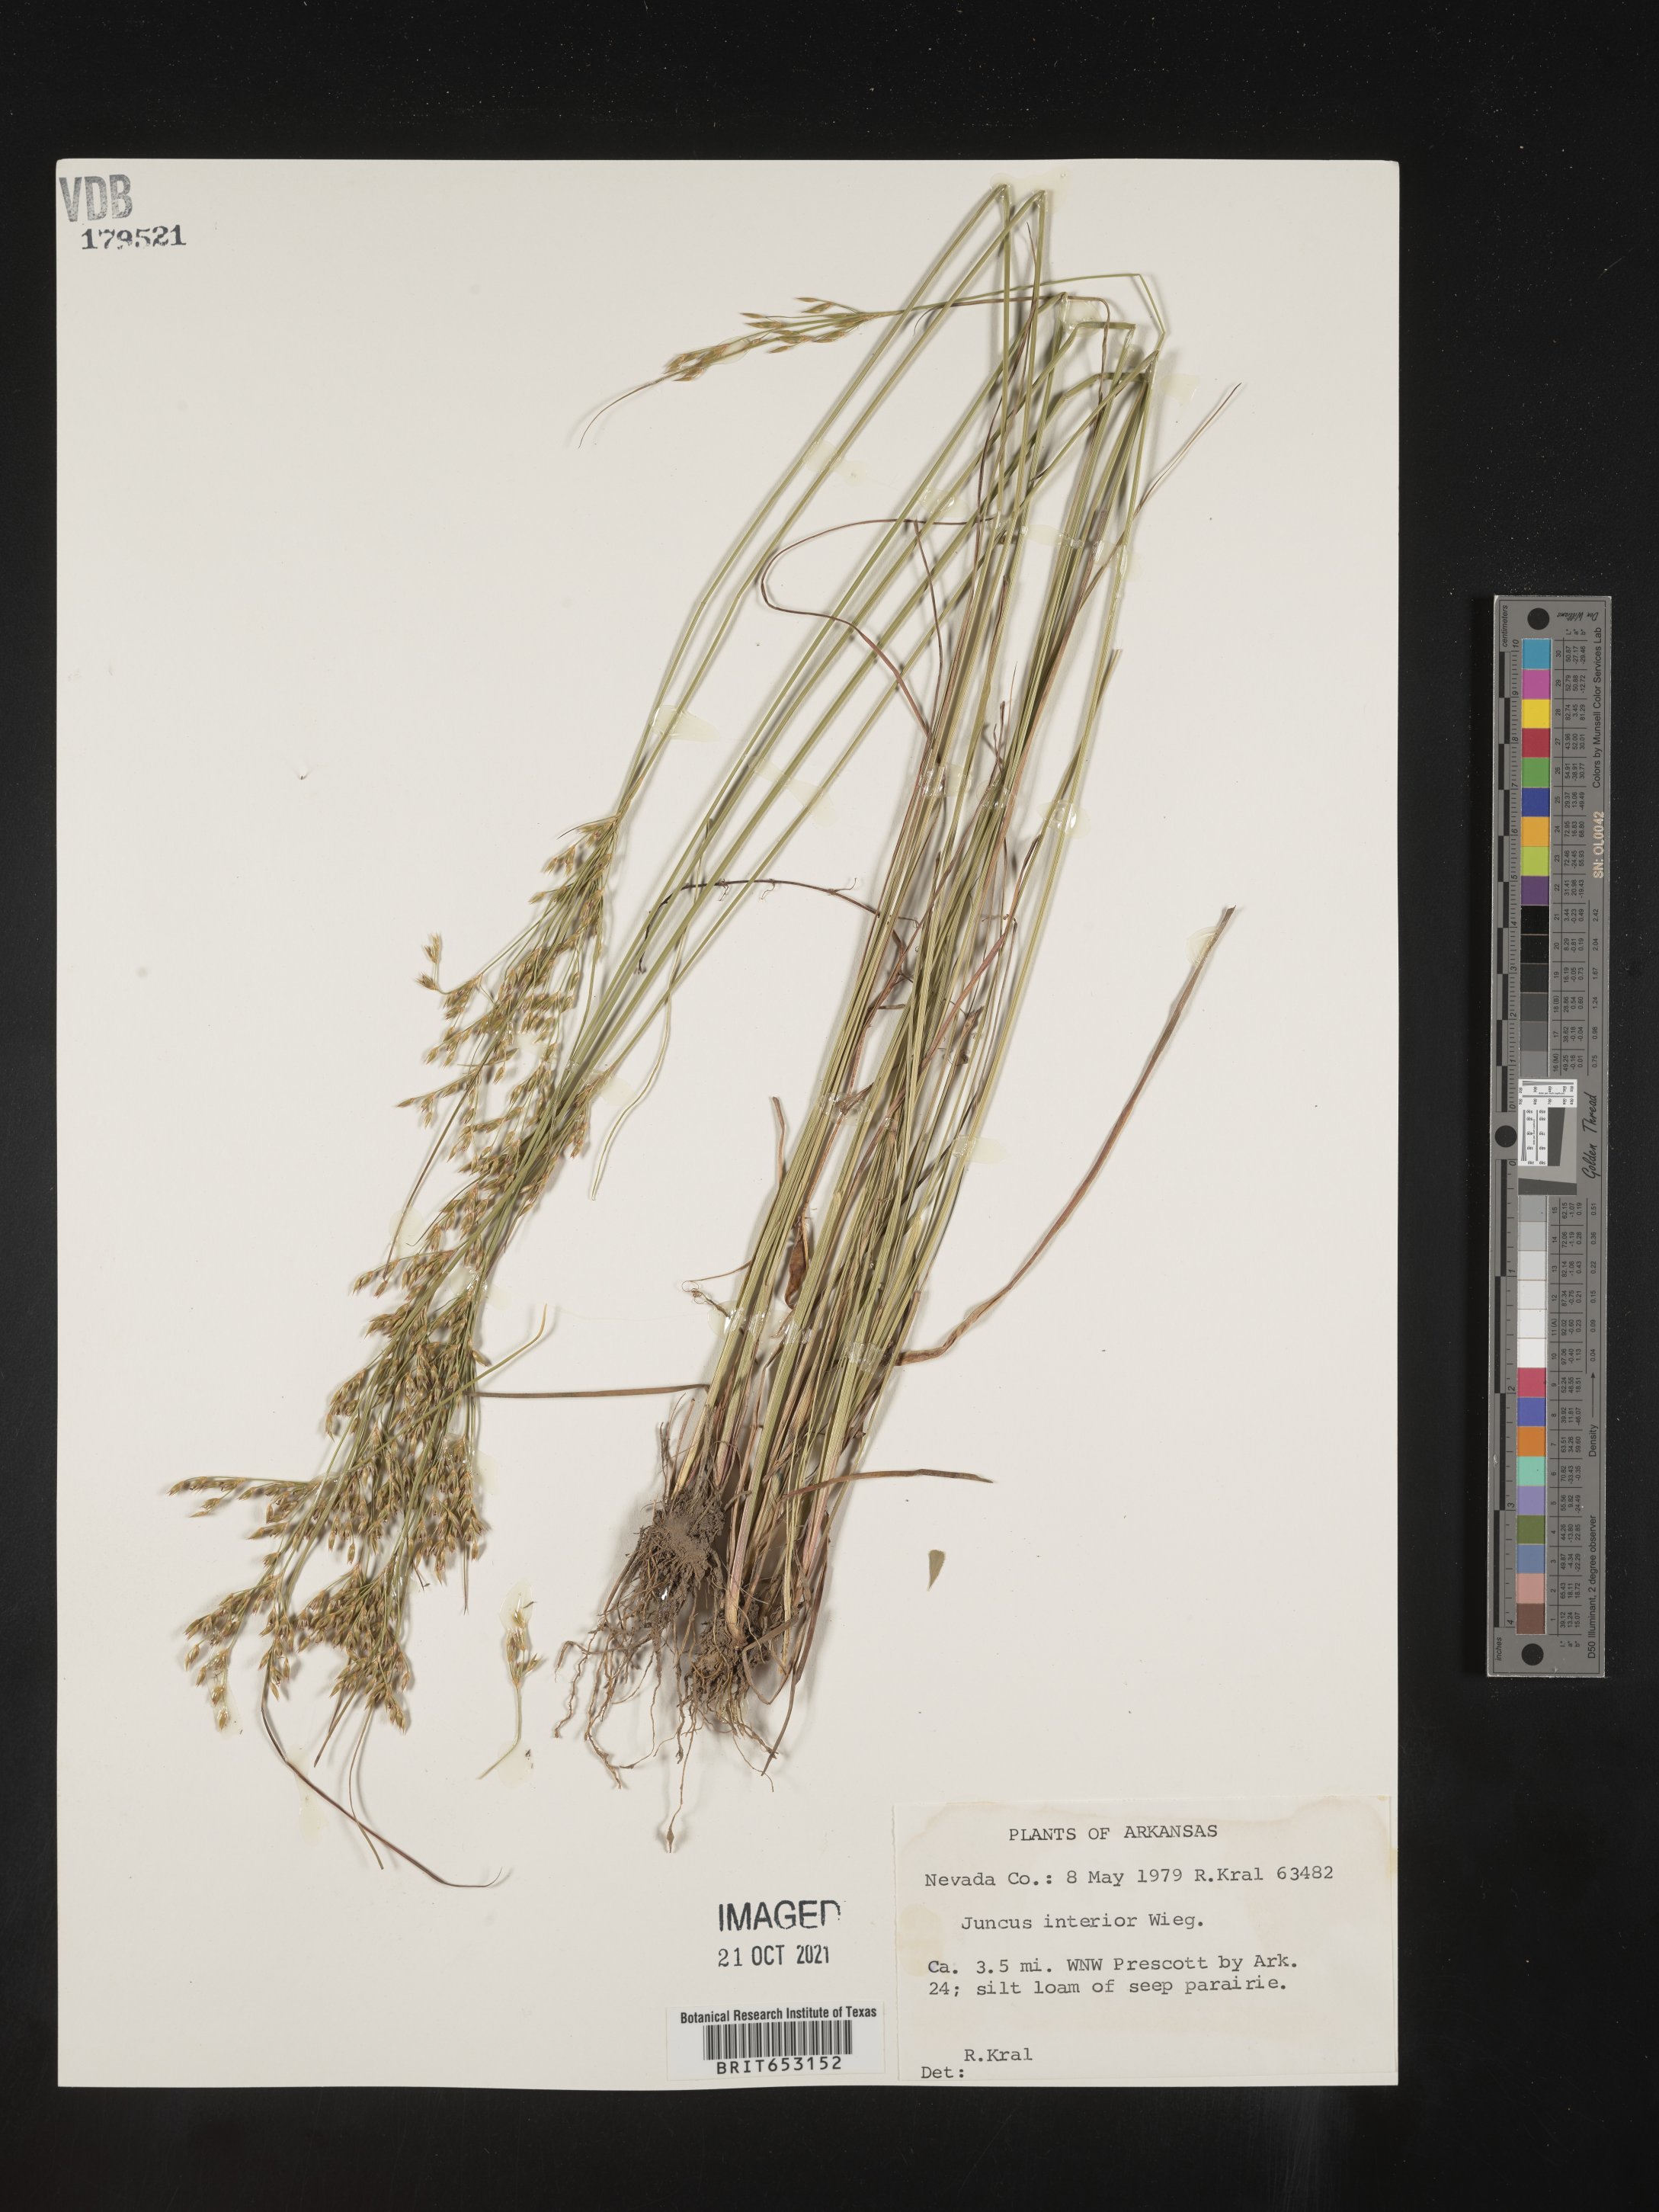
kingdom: Plantae
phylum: Tracheophyta
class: Liliopsida
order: Poales
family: Juncaceae
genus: Juncus
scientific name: Juncus interior
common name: Interior rush
